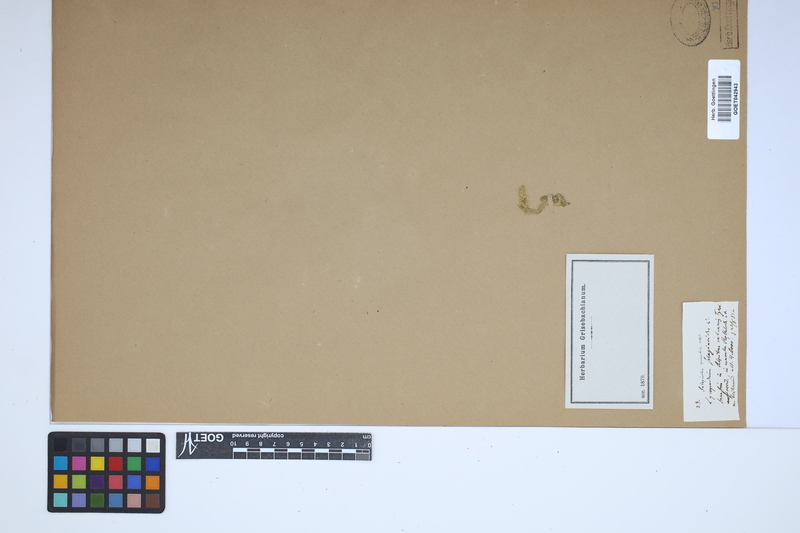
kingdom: Plantae
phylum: Tracheophyta
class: Lycopodiopsida
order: Selaginellales
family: Selaginellaceae
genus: Selaginella
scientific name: Selaginella selaginoides
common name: Prickly mountain-moss
